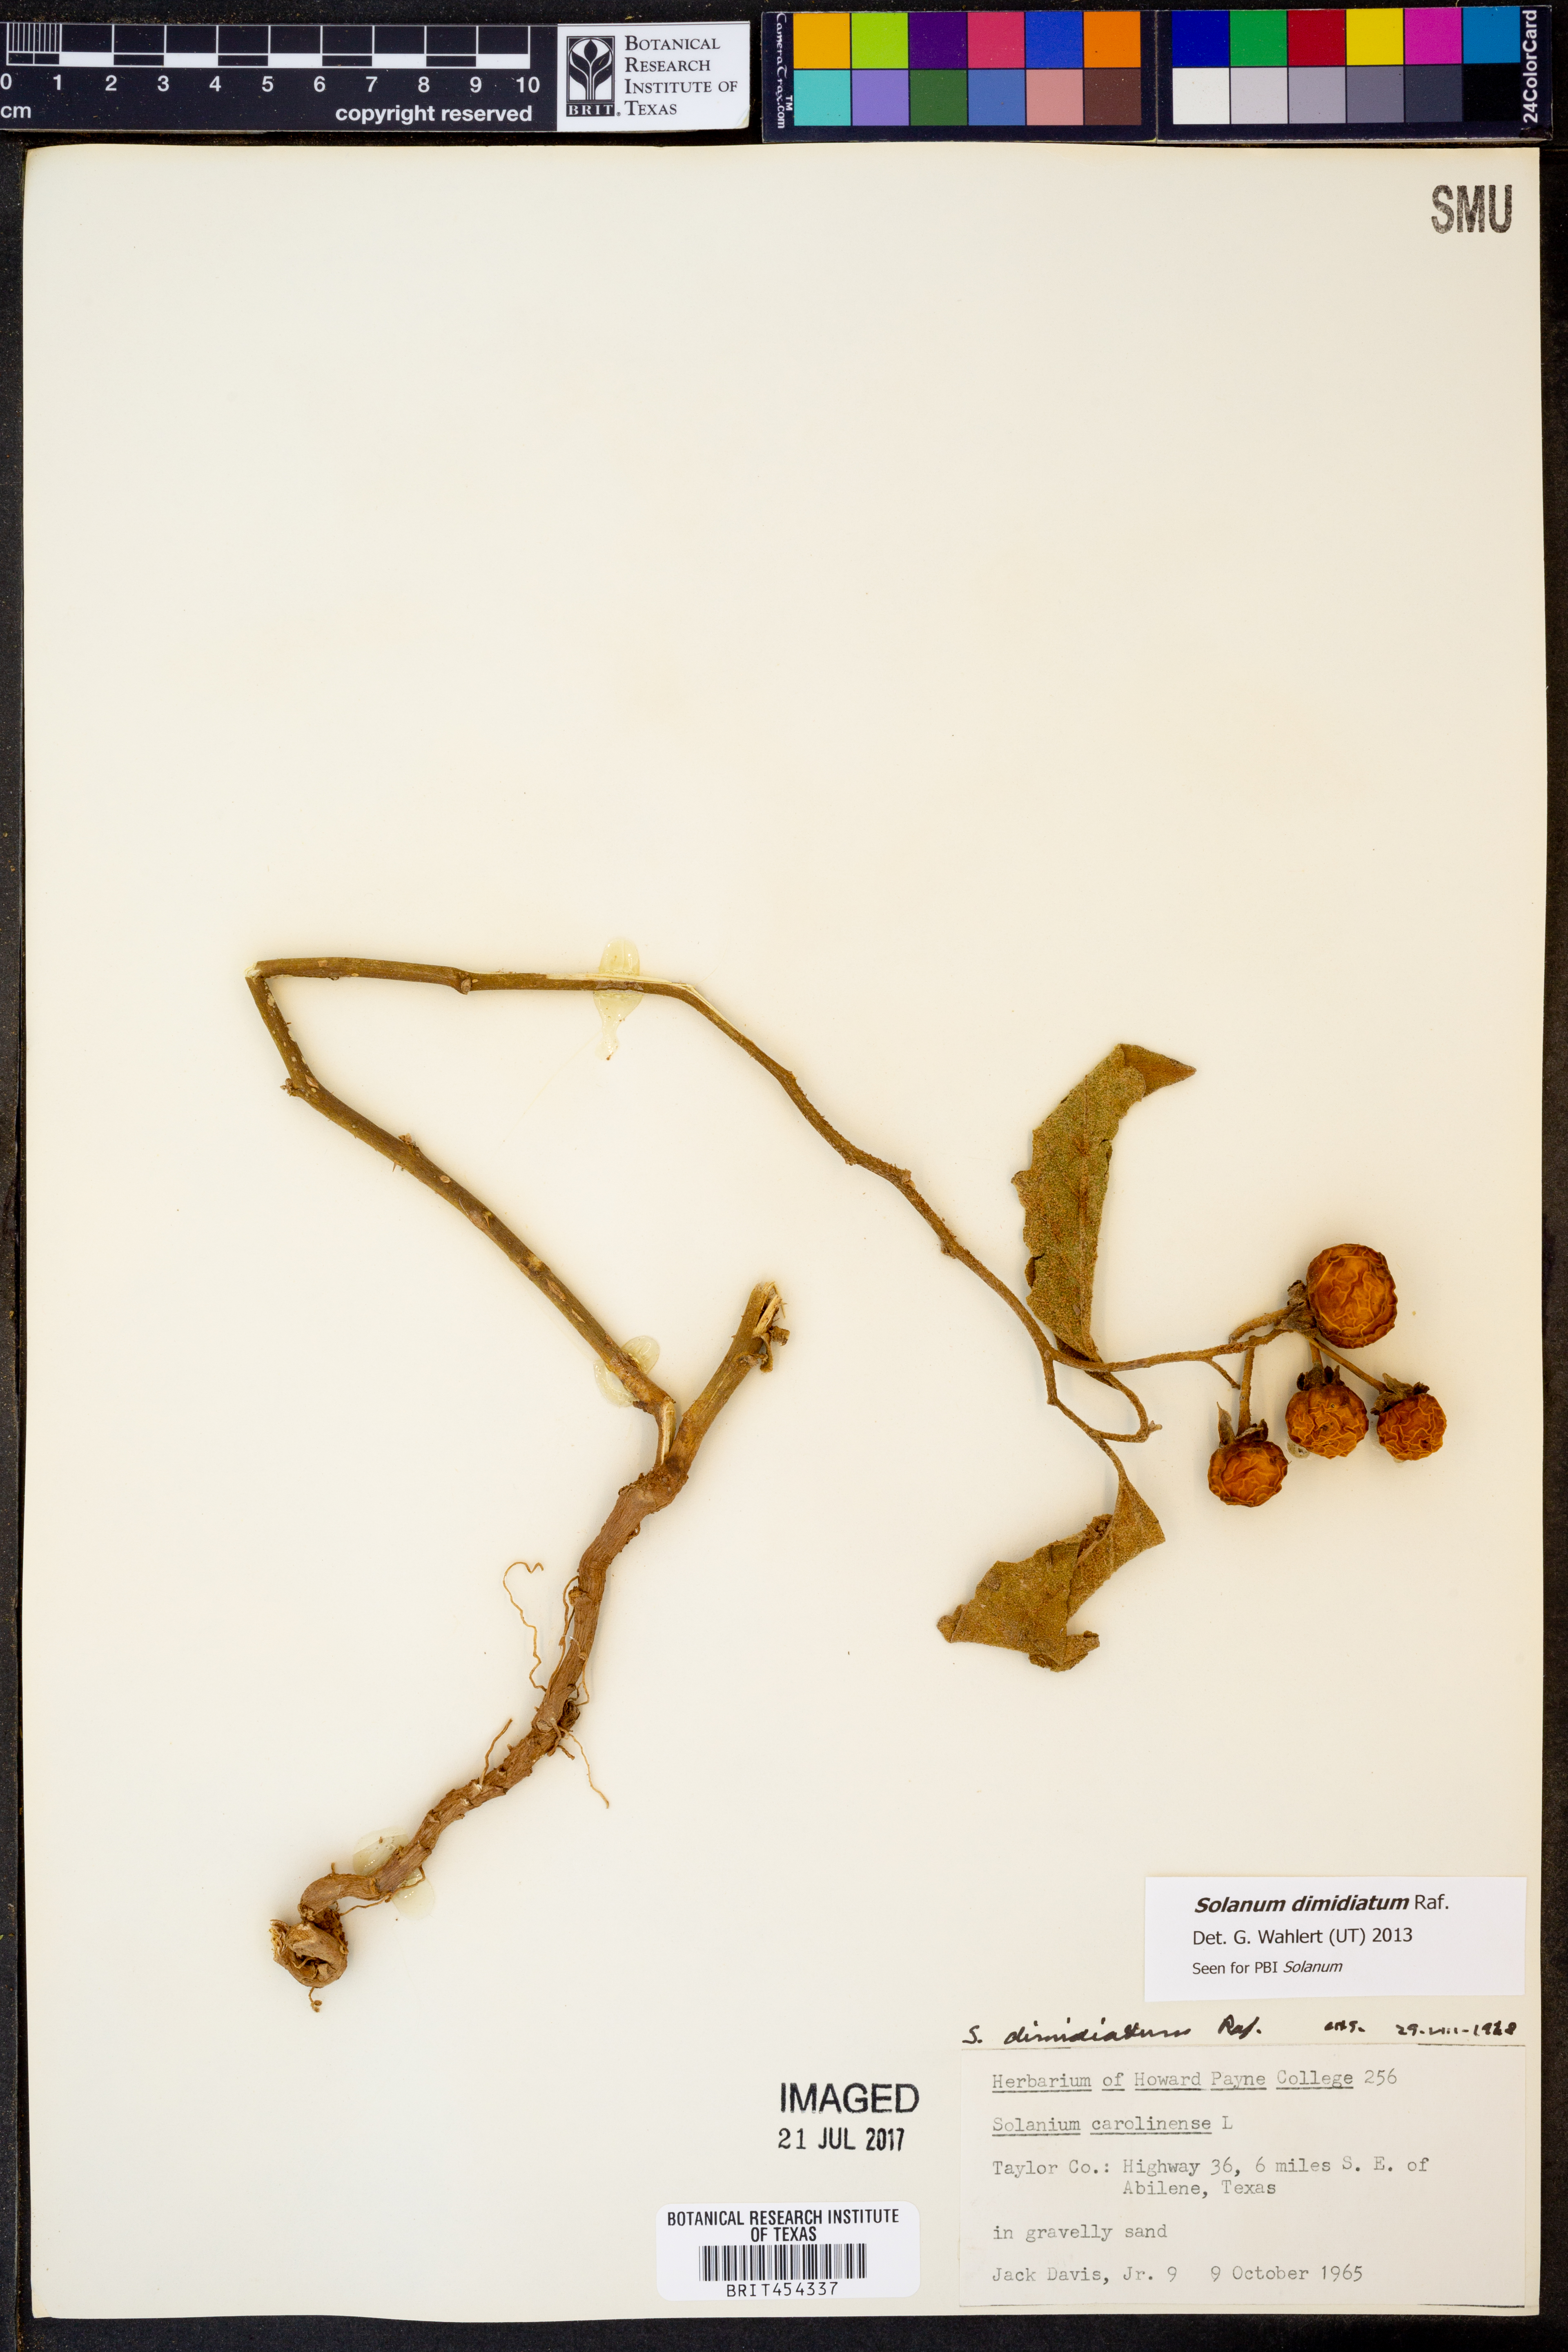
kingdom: Plantae
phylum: Tracheophyta
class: Magnoliopsida
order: Solanales
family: Solanaceae
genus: Solanum
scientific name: Solanum dimidiatum
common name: Carolina horse-nettle
